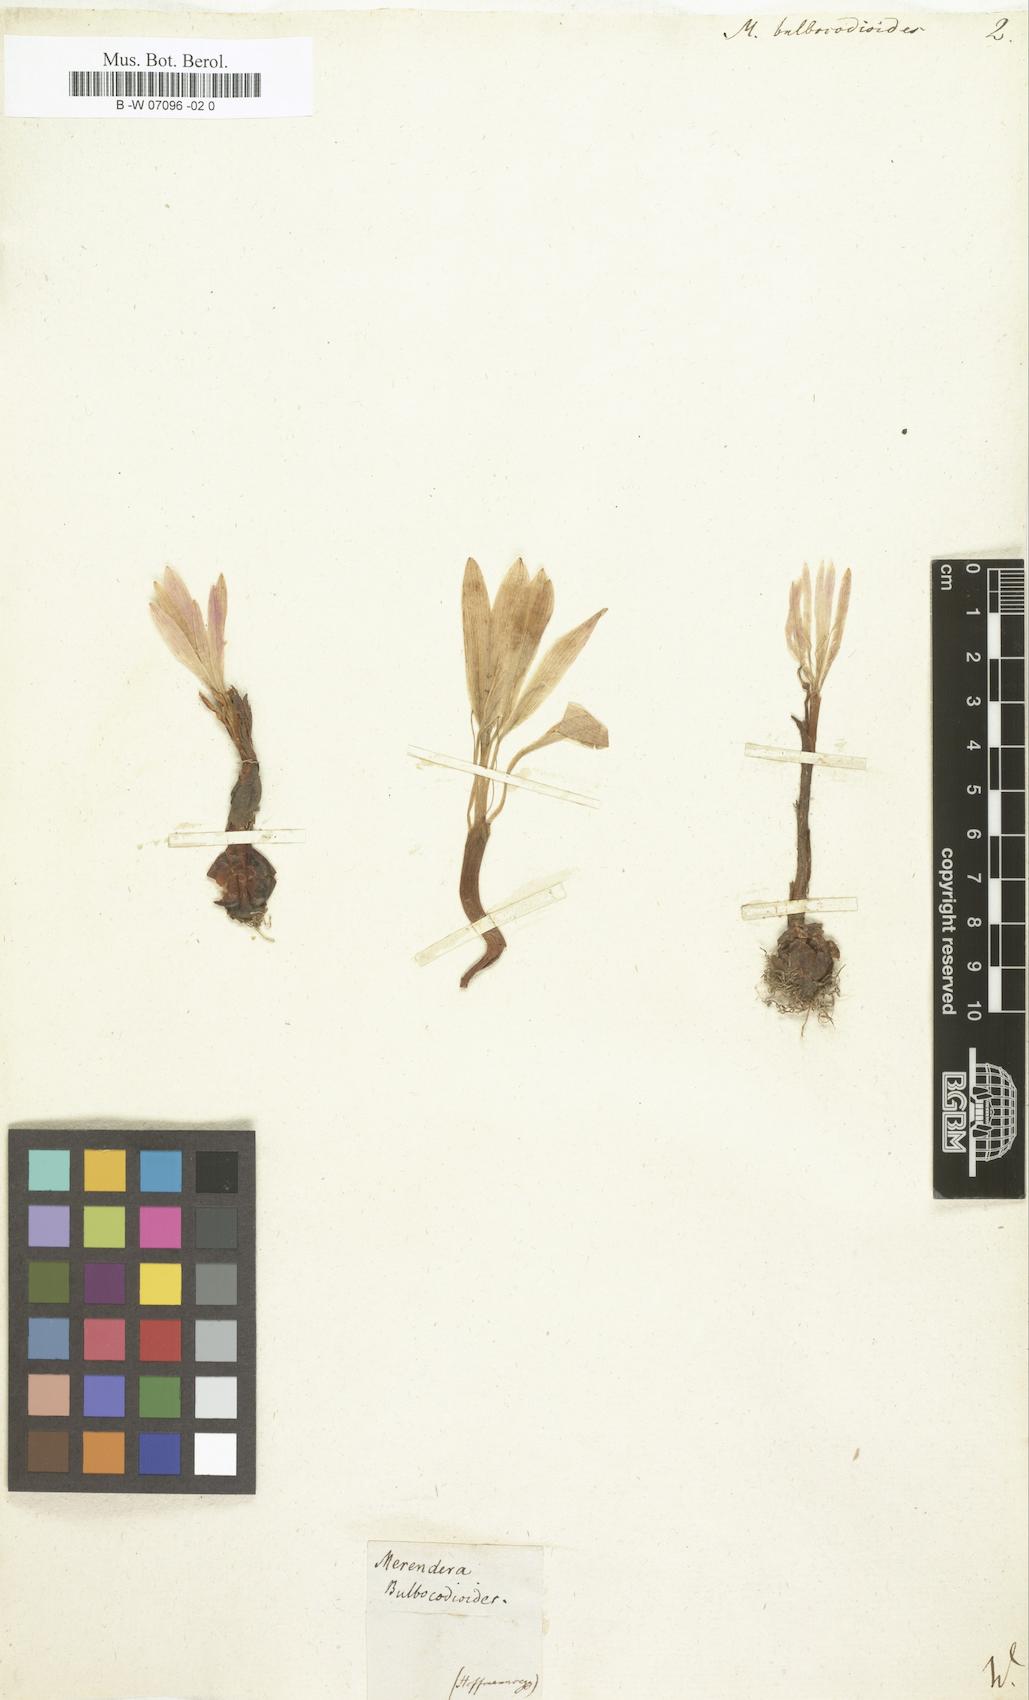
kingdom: Plantae
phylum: Tracheophyta
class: Liliopsida
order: Liliales
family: Colchicaceae
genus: Colchicum
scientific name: Colchicum
